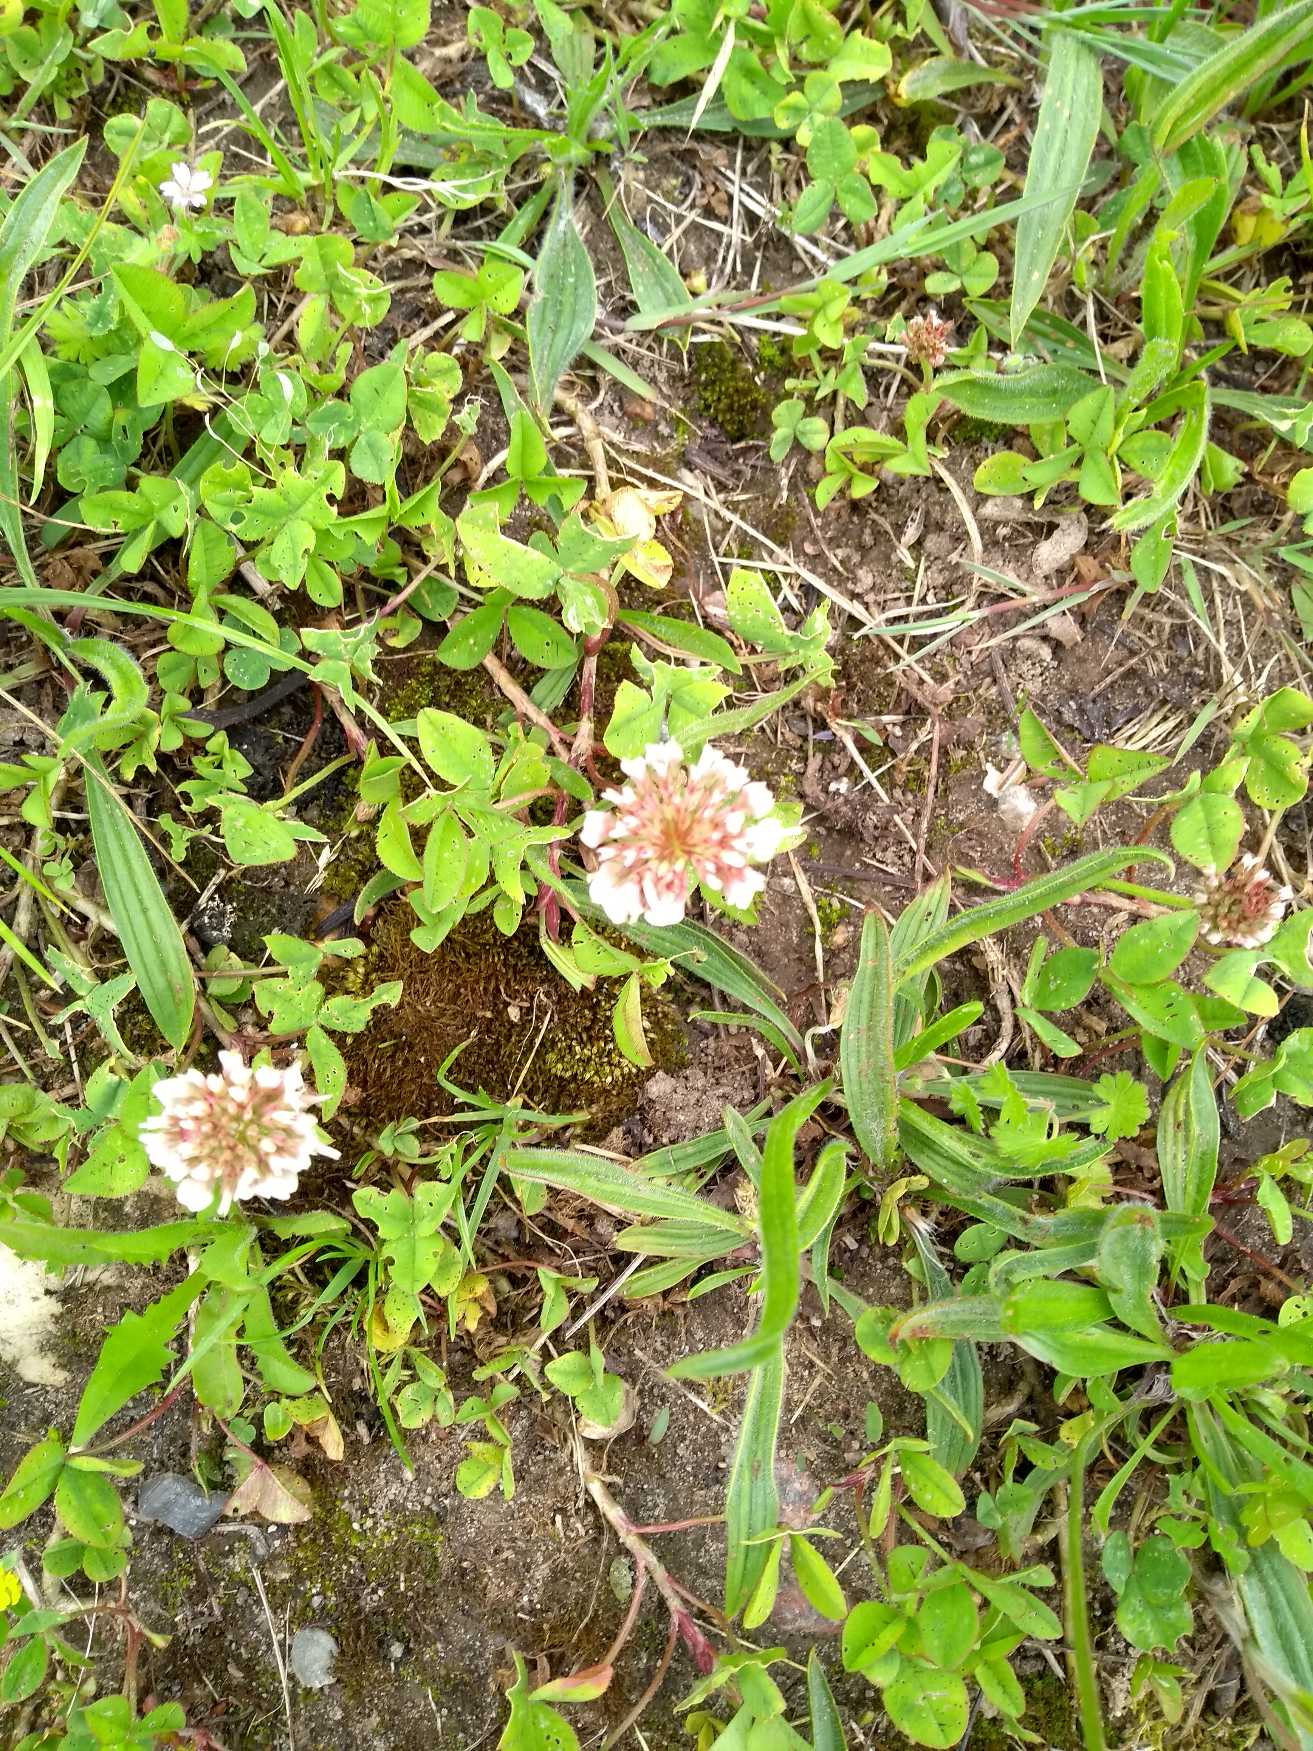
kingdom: Plantae
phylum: Tracheophyta
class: Magnoliopsida
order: Fabales
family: Fabaceae
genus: Trifolium
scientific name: Trifolium repens
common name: Hvid-kløver
